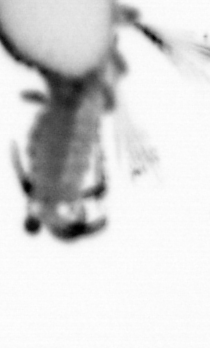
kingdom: Animalia
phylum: Annelida
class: Polychaeta
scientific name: Polychaeta
